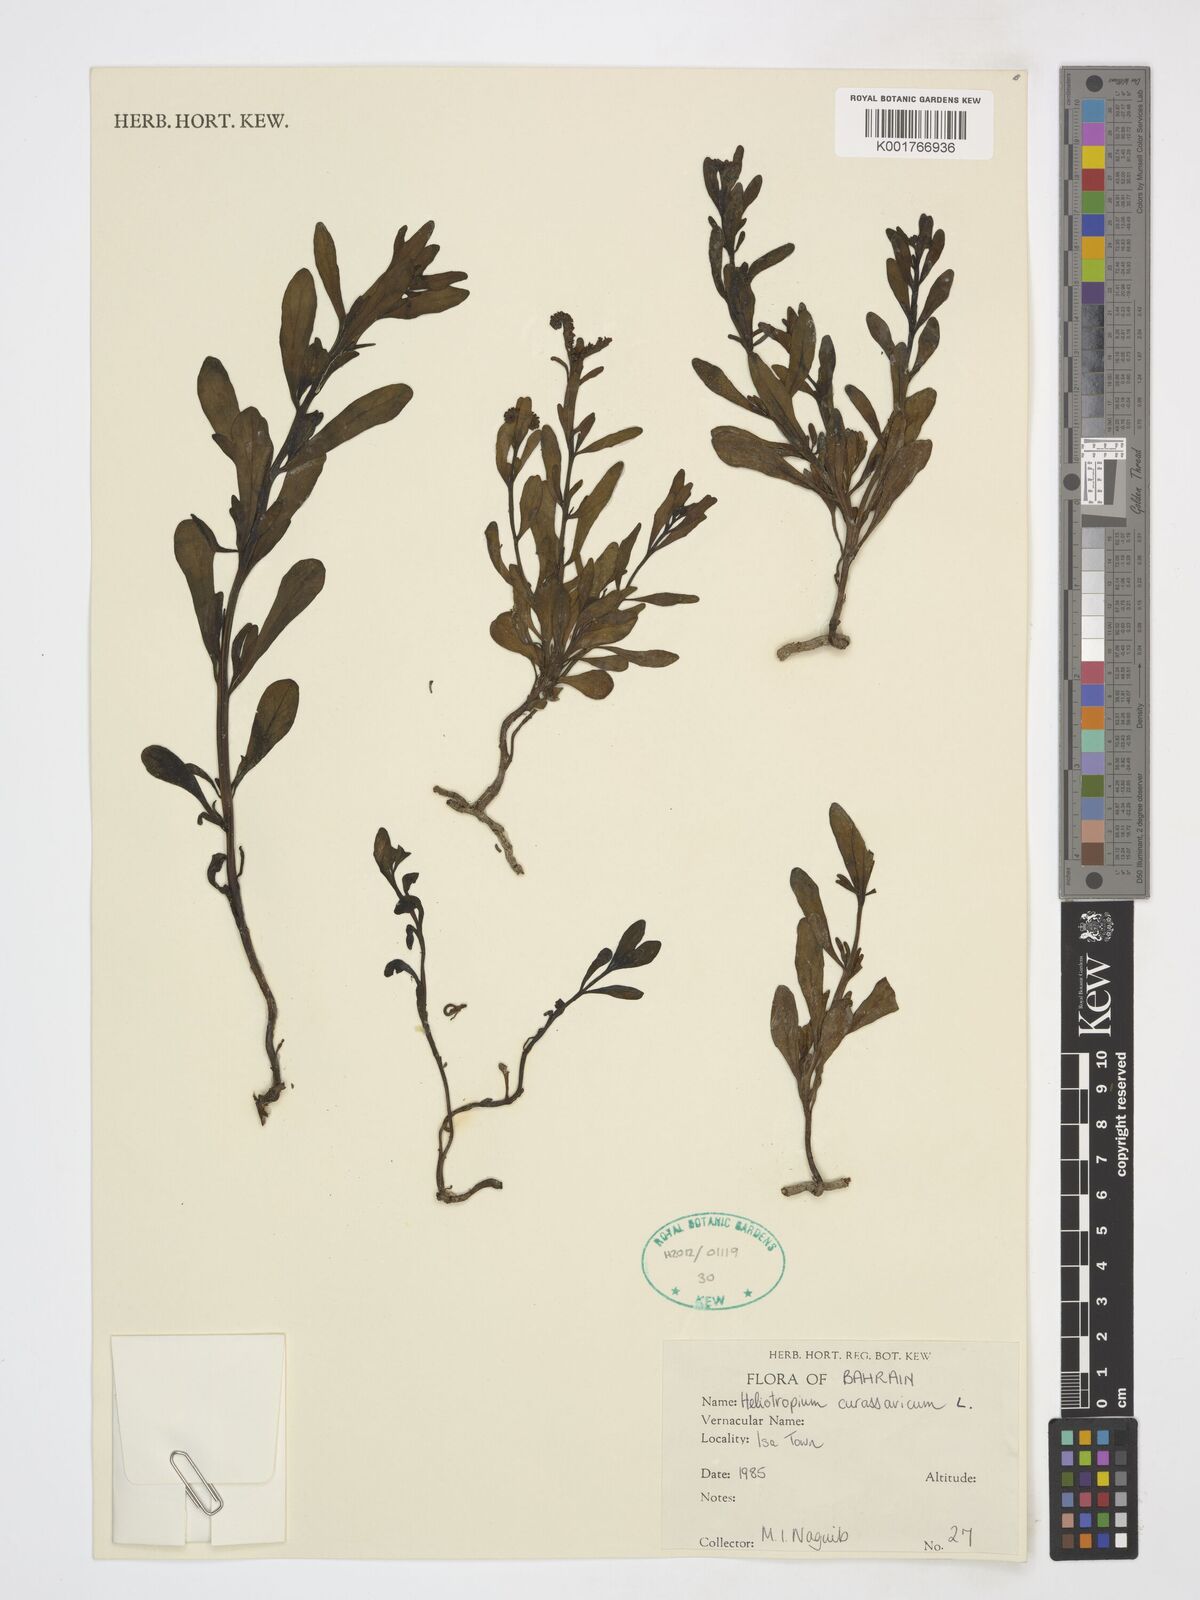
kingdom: Plantae
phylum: Tracheophyta
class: Magnoliopsida
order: Boraginales
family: Heliotropiaceae
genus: Heliotropium
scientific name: Heliotropium curassavicum
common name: Seaside heliotrope
